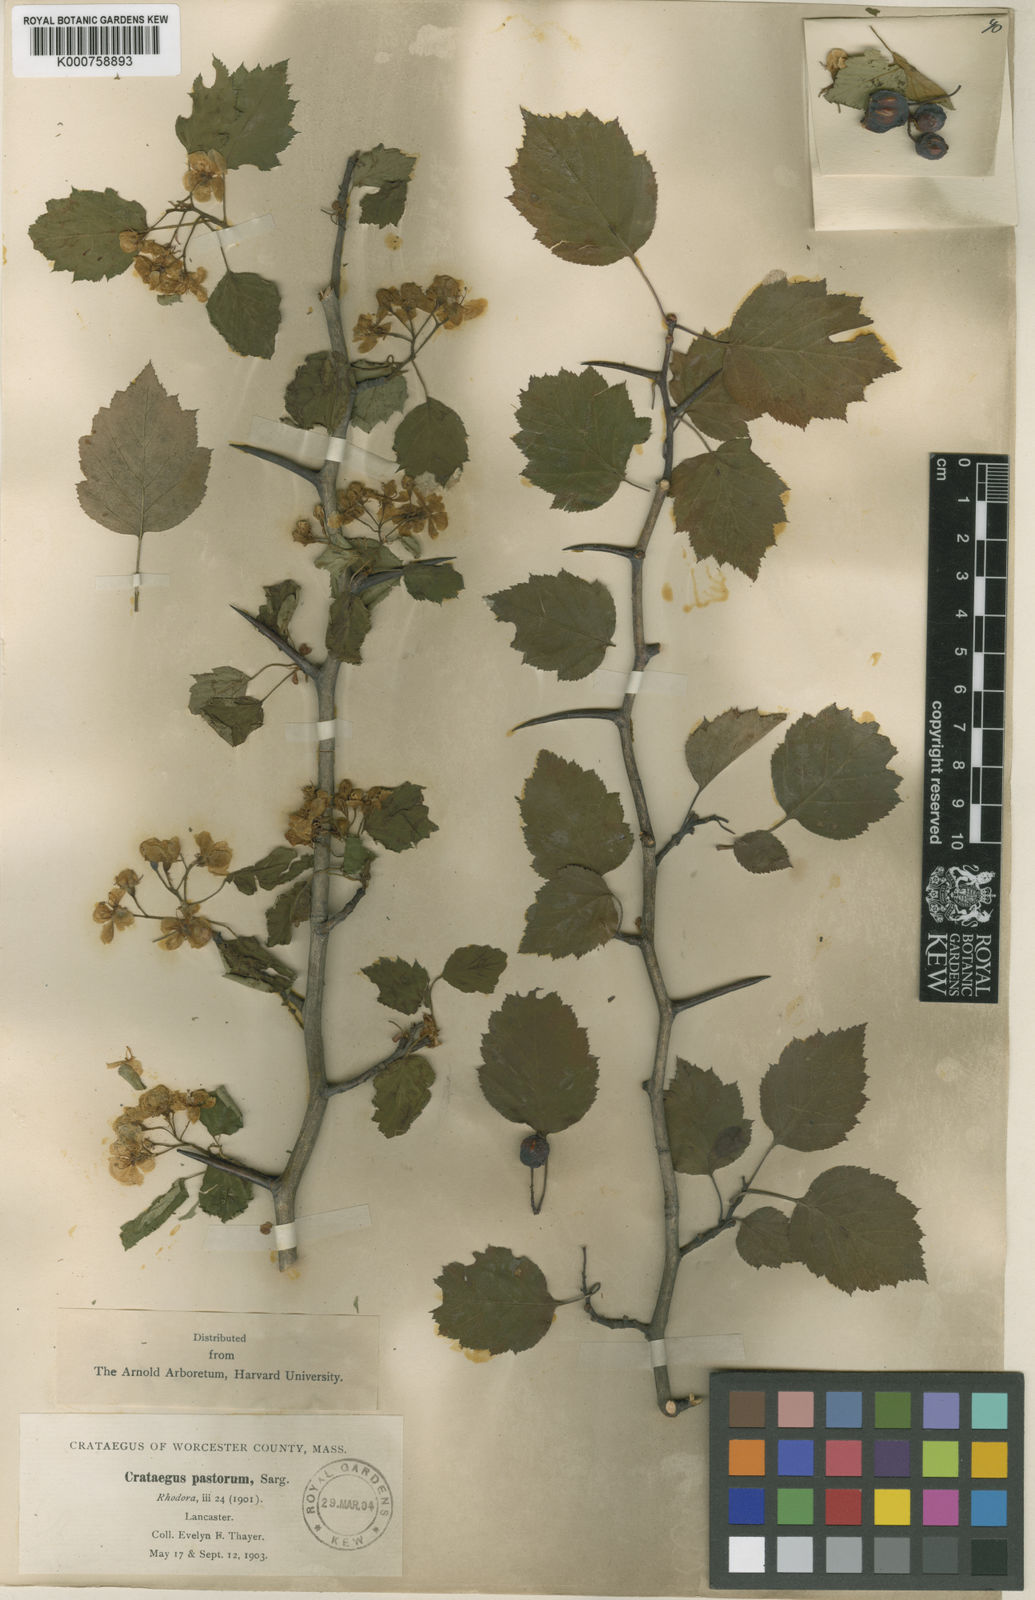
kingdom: Plantae
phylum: Tracheophyta
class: Magnoliopsida
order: Rosales
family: Rosaceae
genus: Crataegus
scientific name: Crataegus macrosperma
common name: Variable hawthorn
